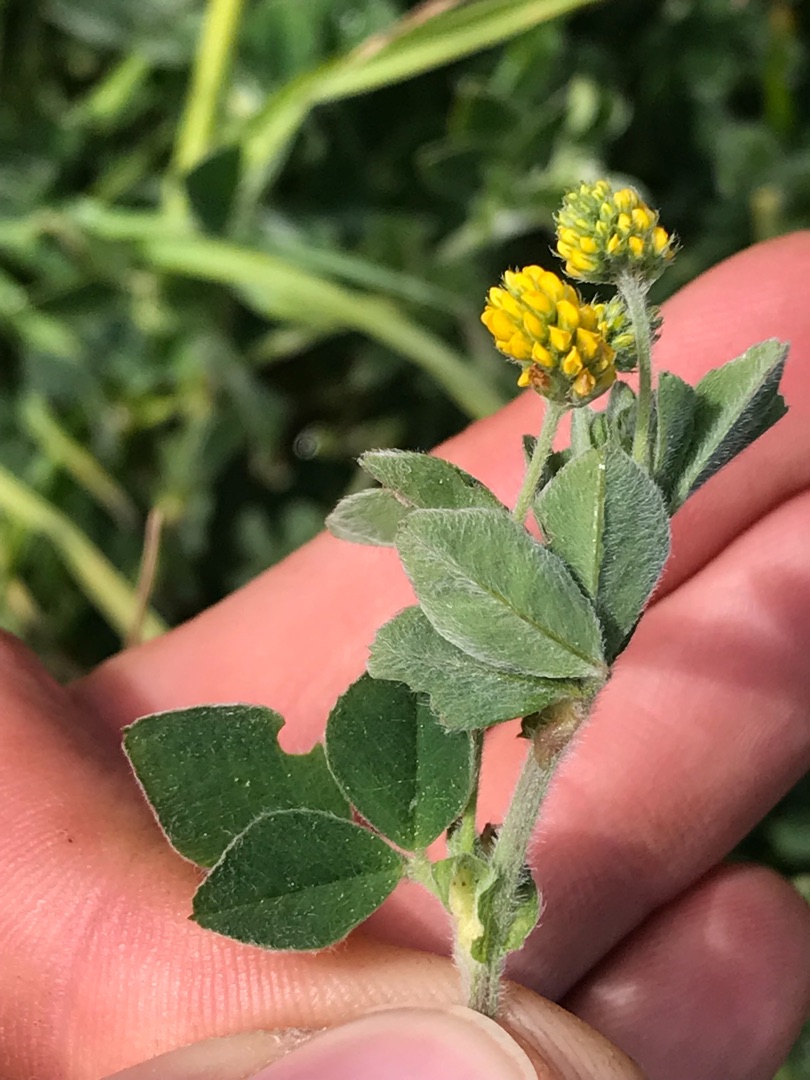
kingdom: Plantae
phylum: Tracheophyta
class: Magnoliopsida
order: Fabales
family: Fabaceae
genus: Medicago
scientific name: Medicago lupulina
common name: Humle-sneglebælg
